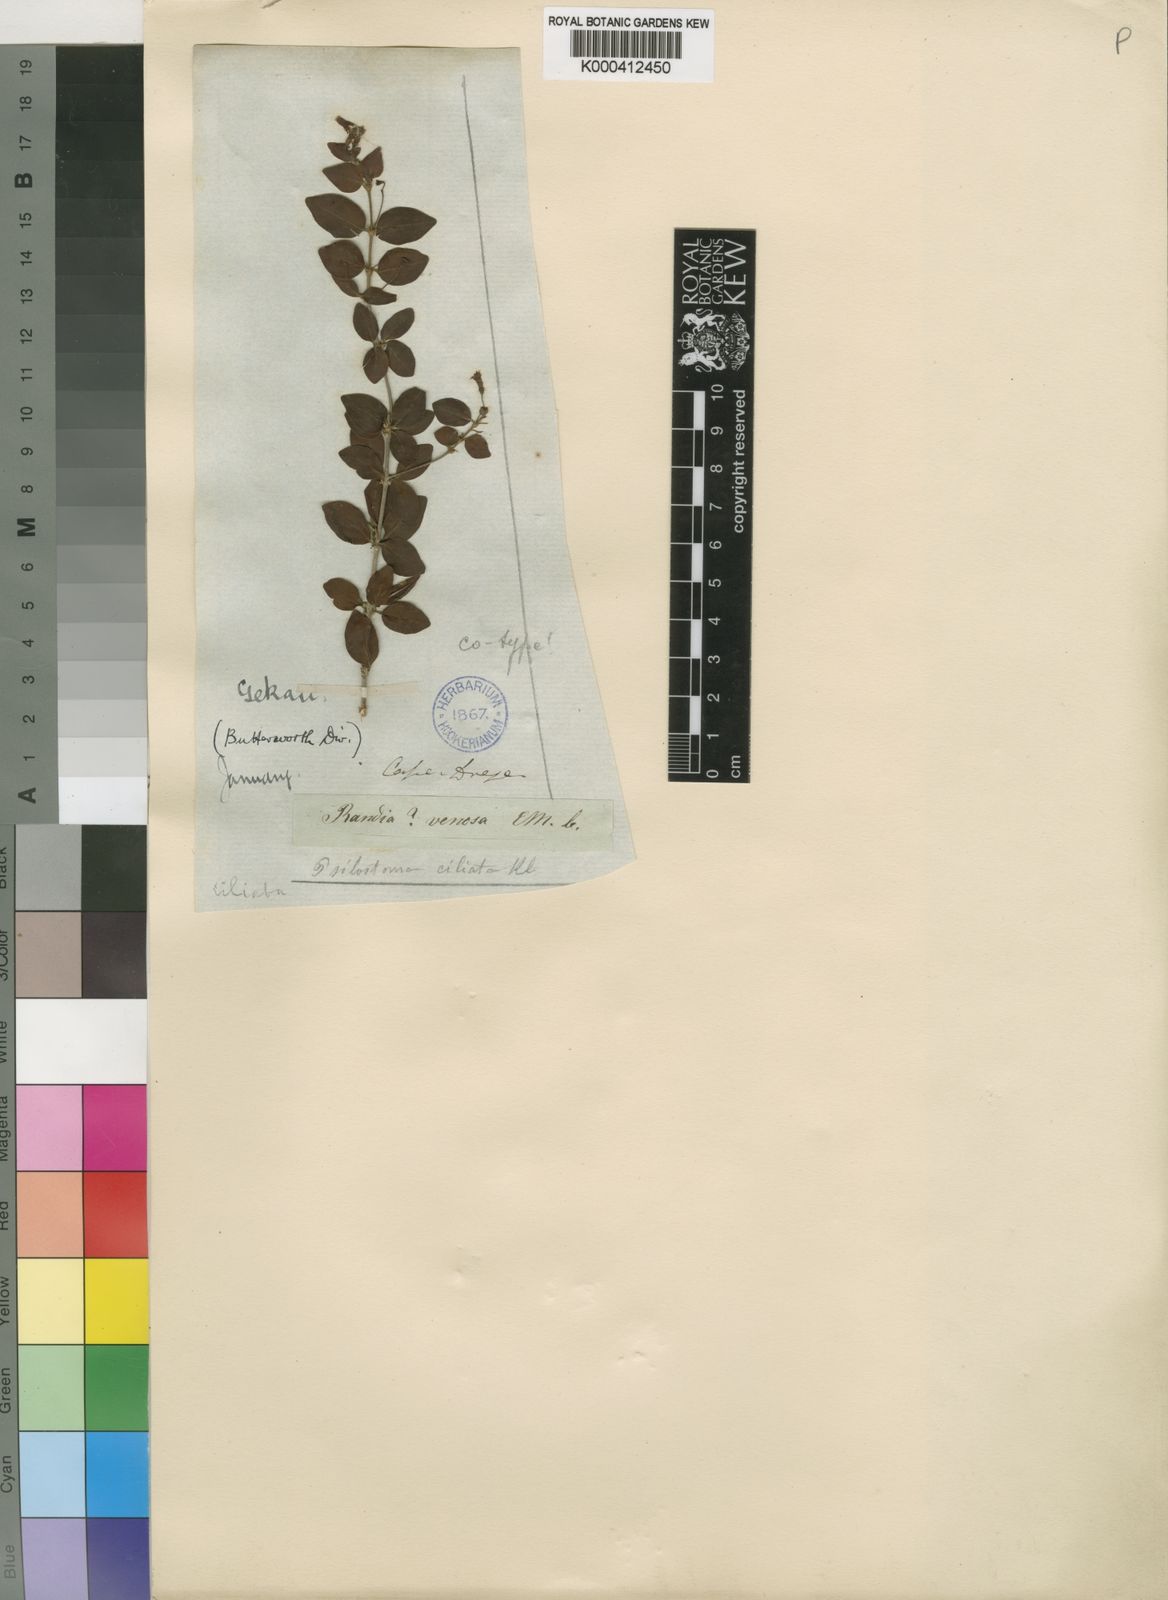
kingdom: Plantae
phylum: Tracheophyta
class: Magnoliopsida
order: Gentianales
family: Rubiaceae
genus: Canthium
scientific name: Canthium ciliatum
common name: Hairy turkey-berry
